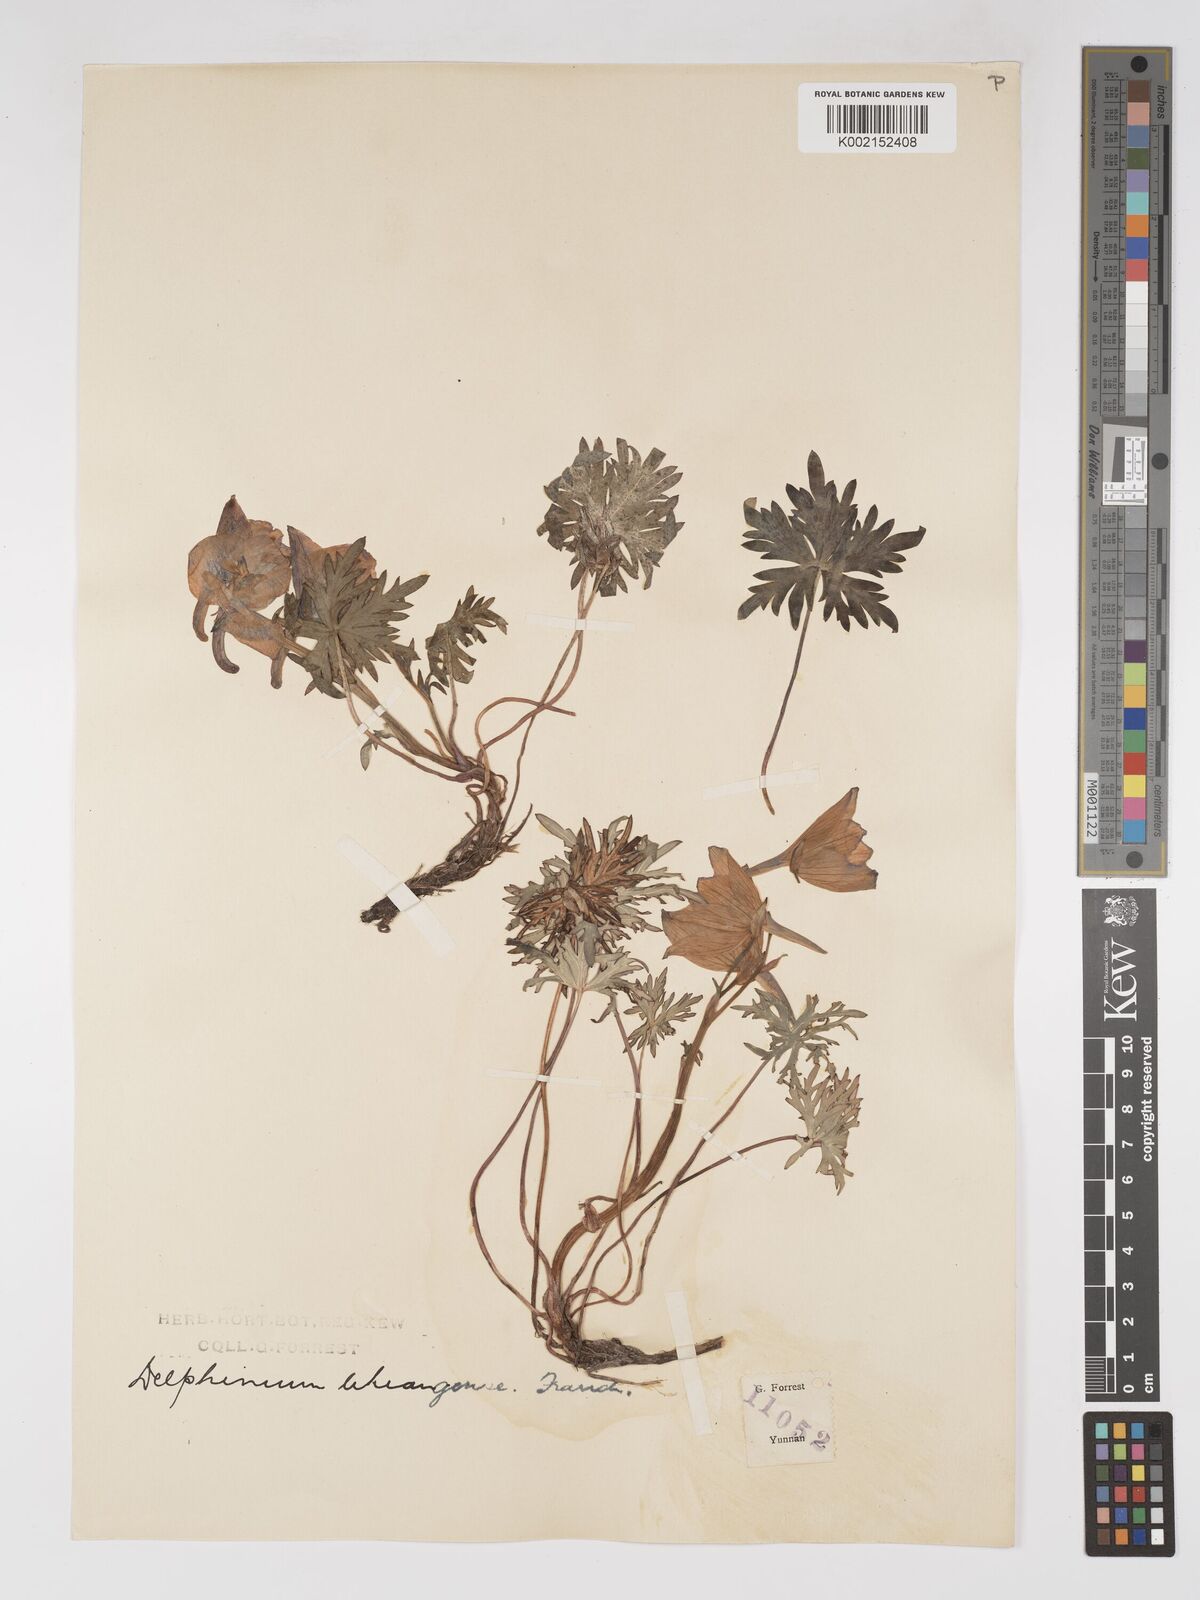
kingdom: Plantae
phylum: Tracheophyta
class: Magnoliopsida
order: Ranunculales
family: Ranunculaceae
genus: Delphinium
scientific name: Delphinium likiangense
